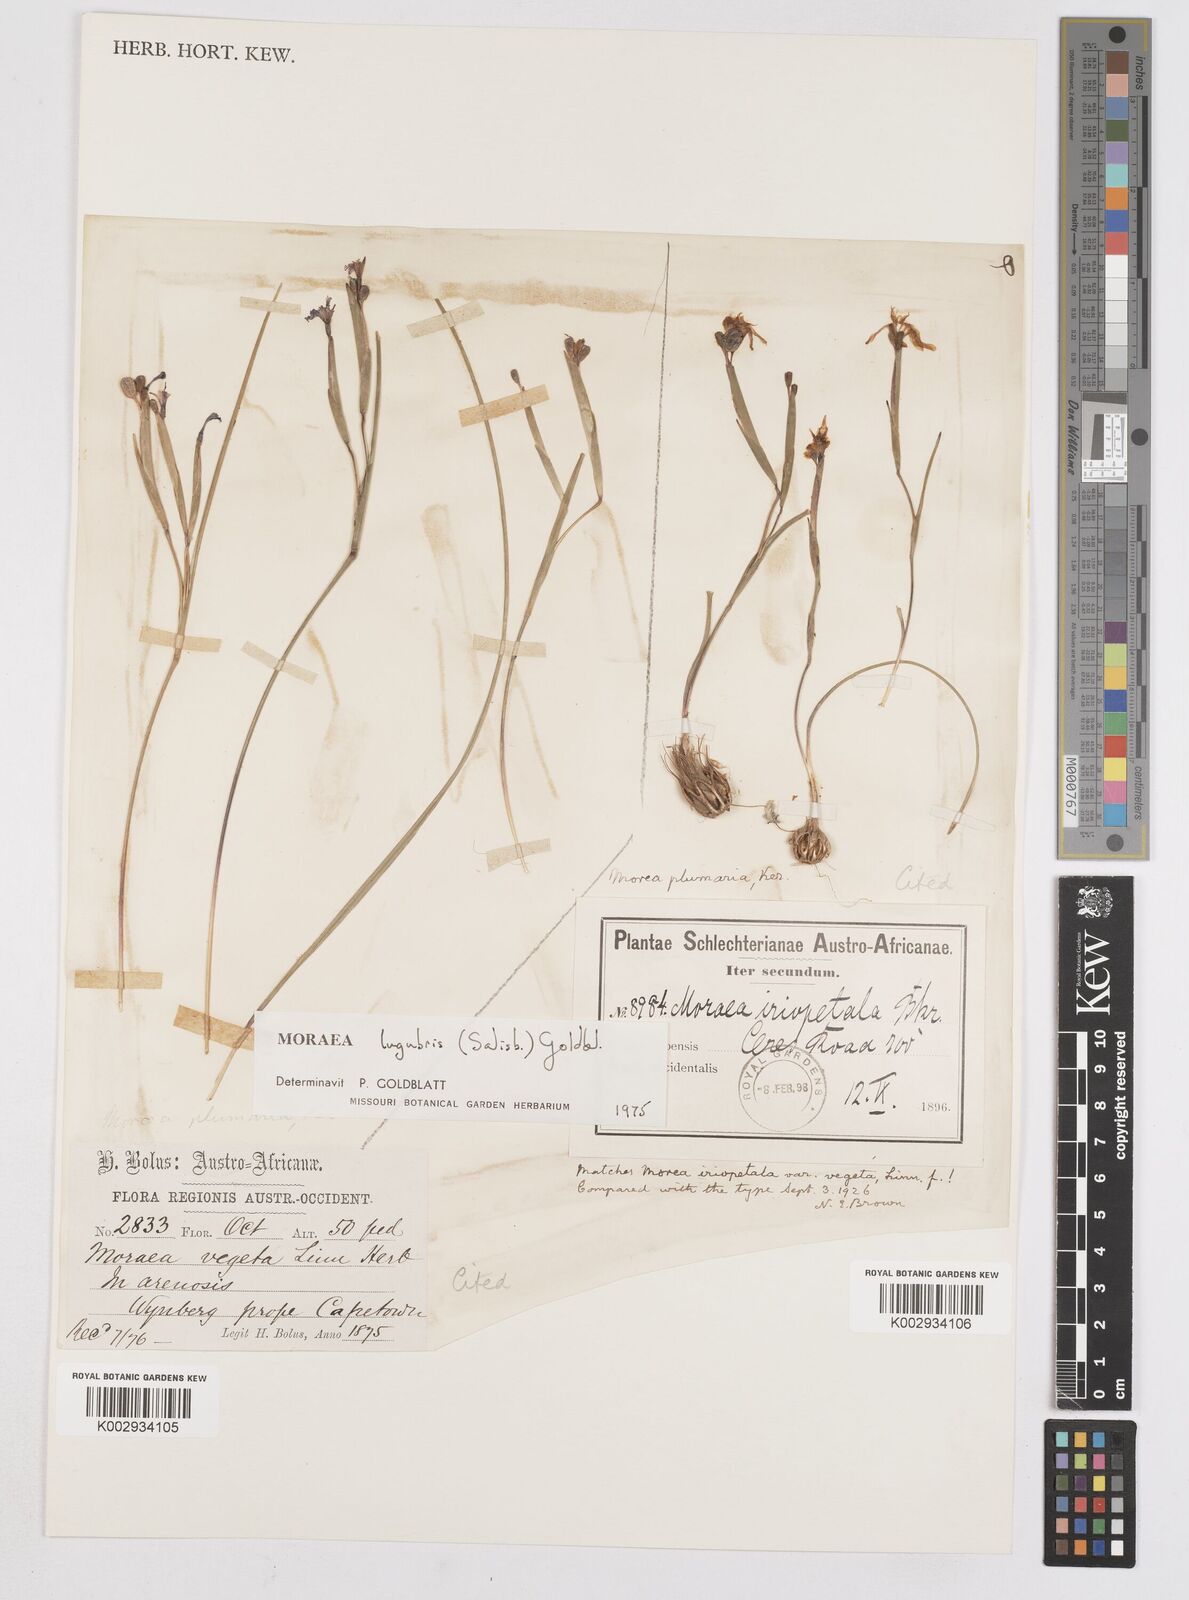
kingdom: Plantae
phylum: Tracheophyta
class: Liliopsida
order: Asparagales
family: Iridaceae
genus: Moraea
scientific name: Moraea lugubris
